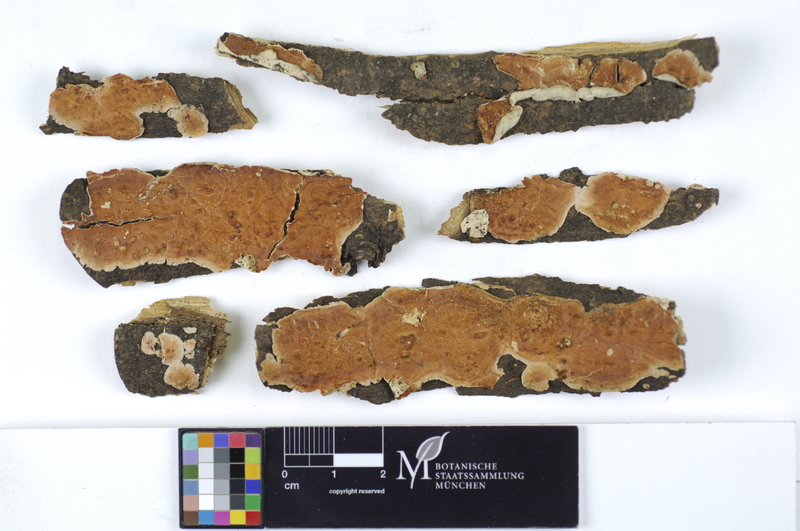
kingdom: Fungi
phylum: Basidiomycota
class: Agaricomycetes
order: Polyporales
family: Irpicaceae
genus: Byssomerulius
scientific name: Byssomerulius corium
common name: Netted crust
